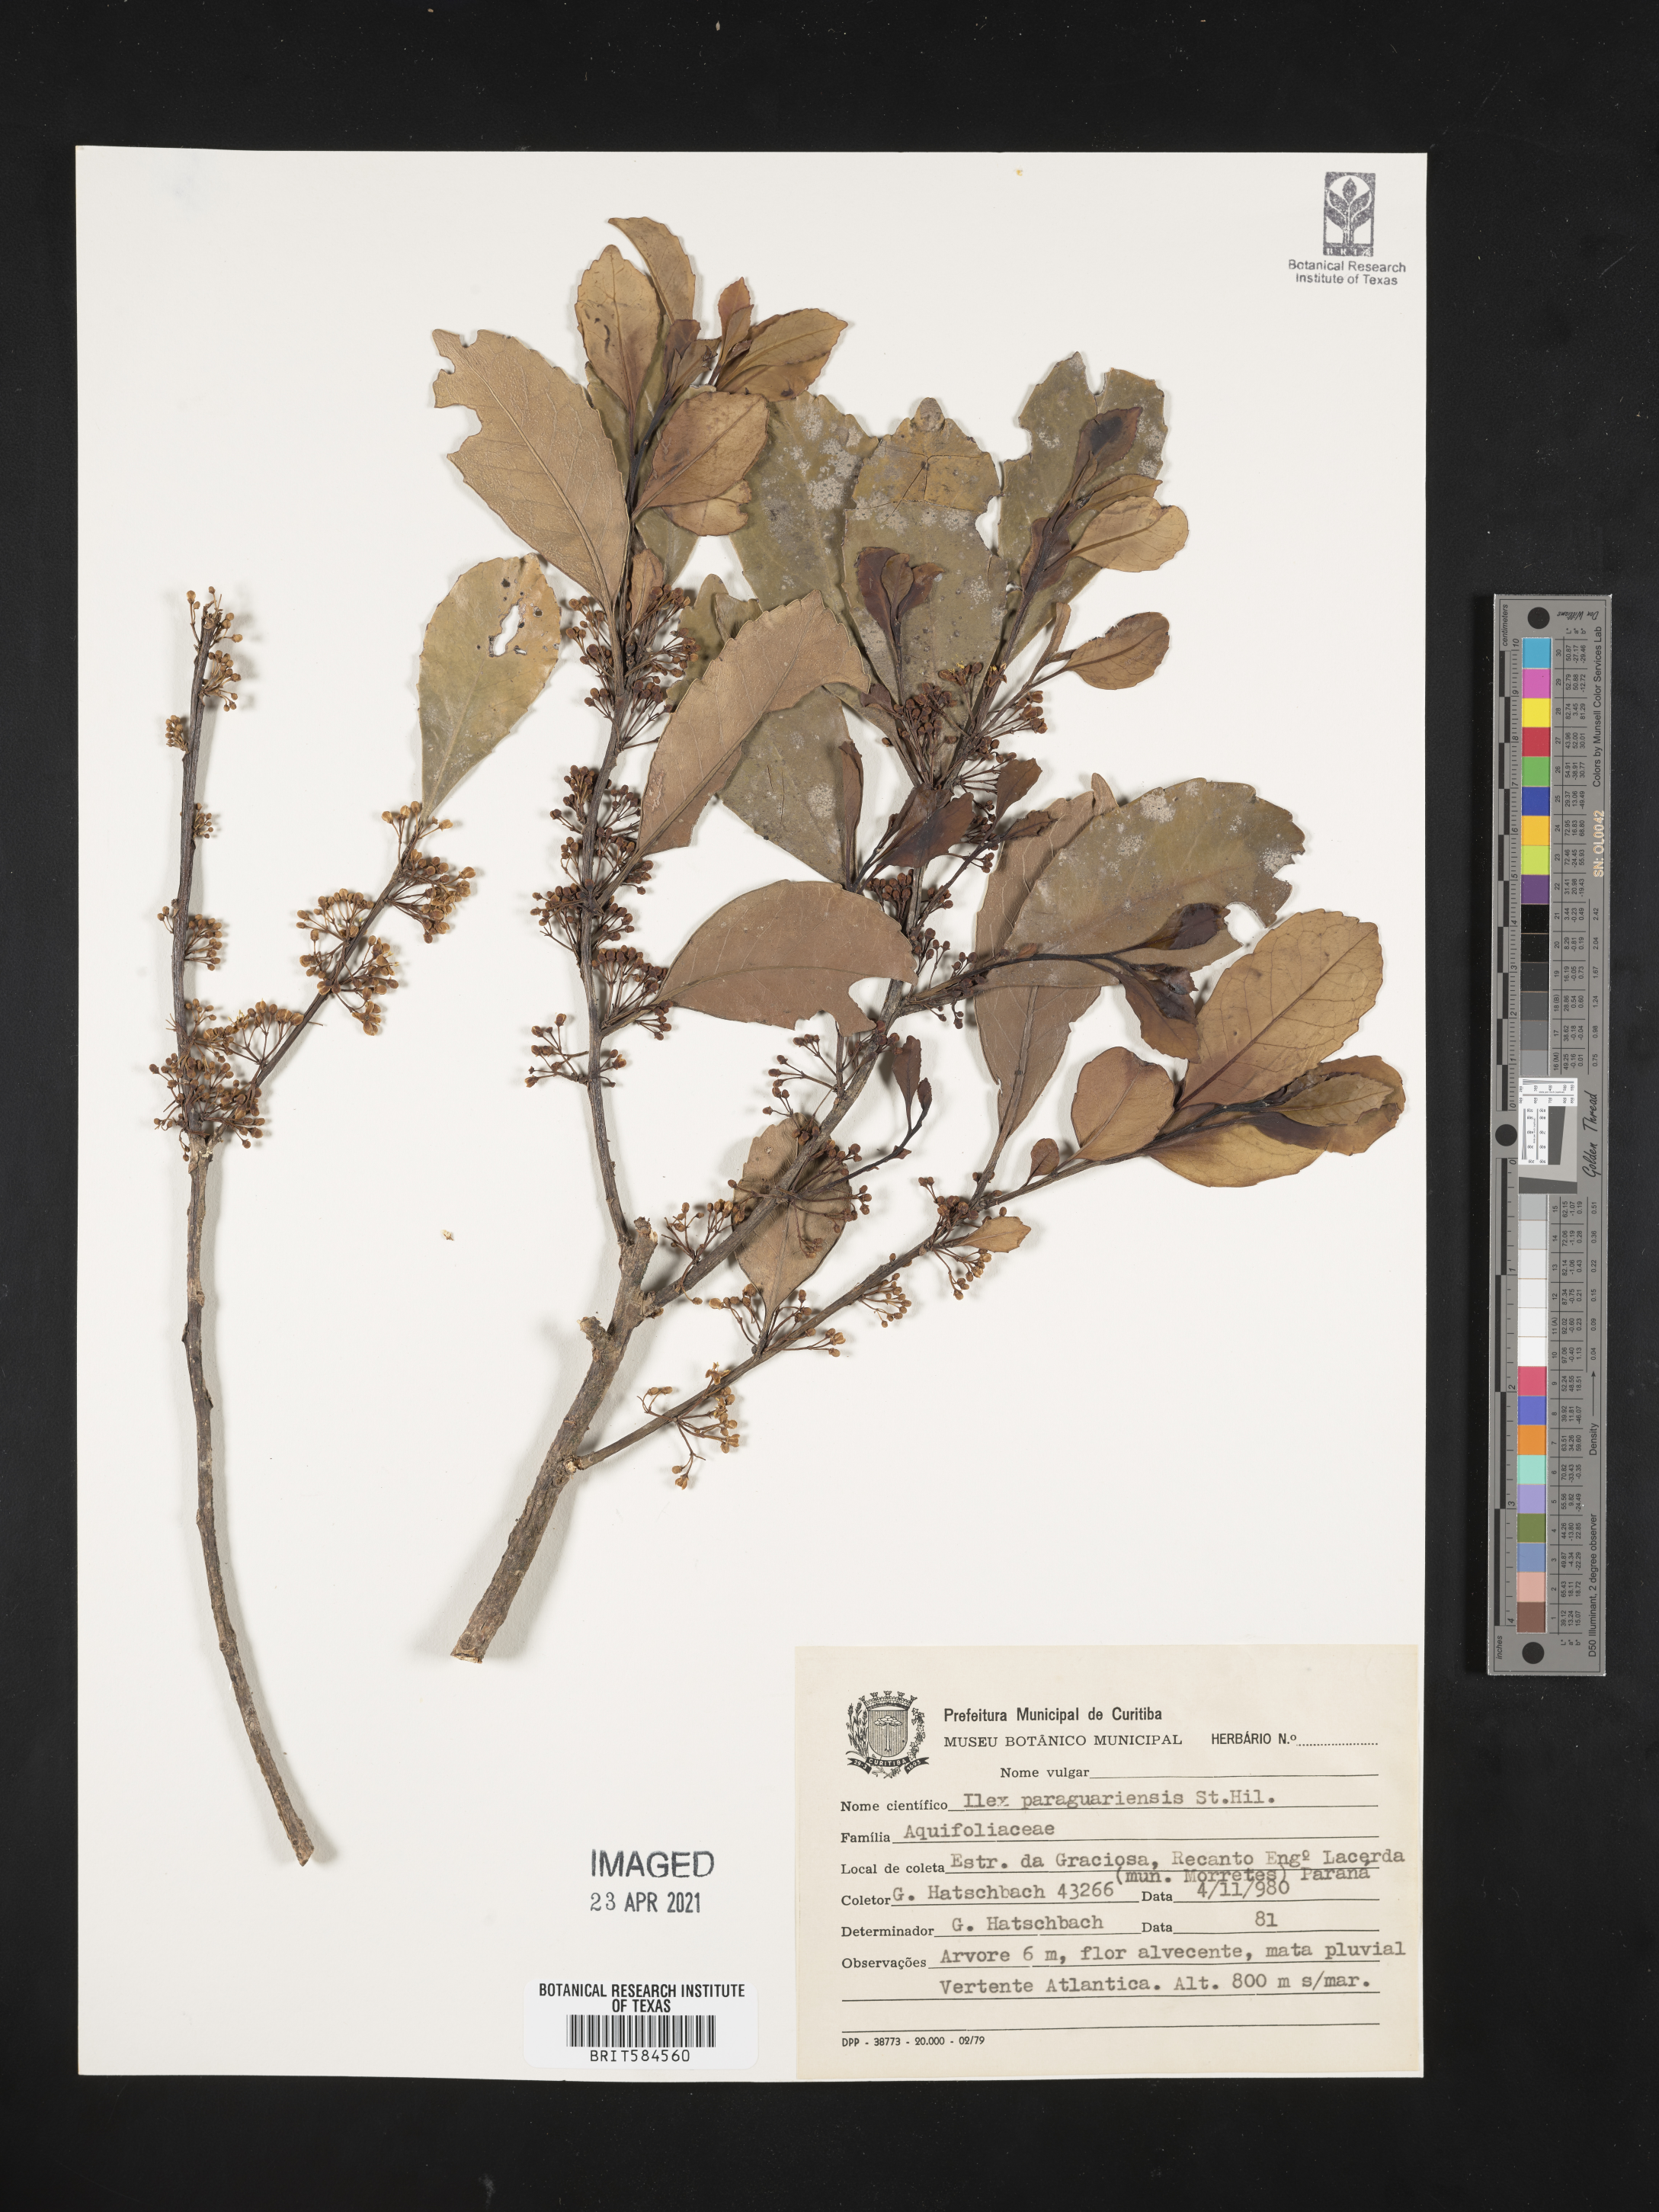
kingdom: Plantae
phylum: Tracheophyta
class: Magnoliopsida
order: Aquifoliales
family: Aquifoliaceae
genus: Ilex
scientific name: Ilex paraguariensis
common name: Paraguay tea
